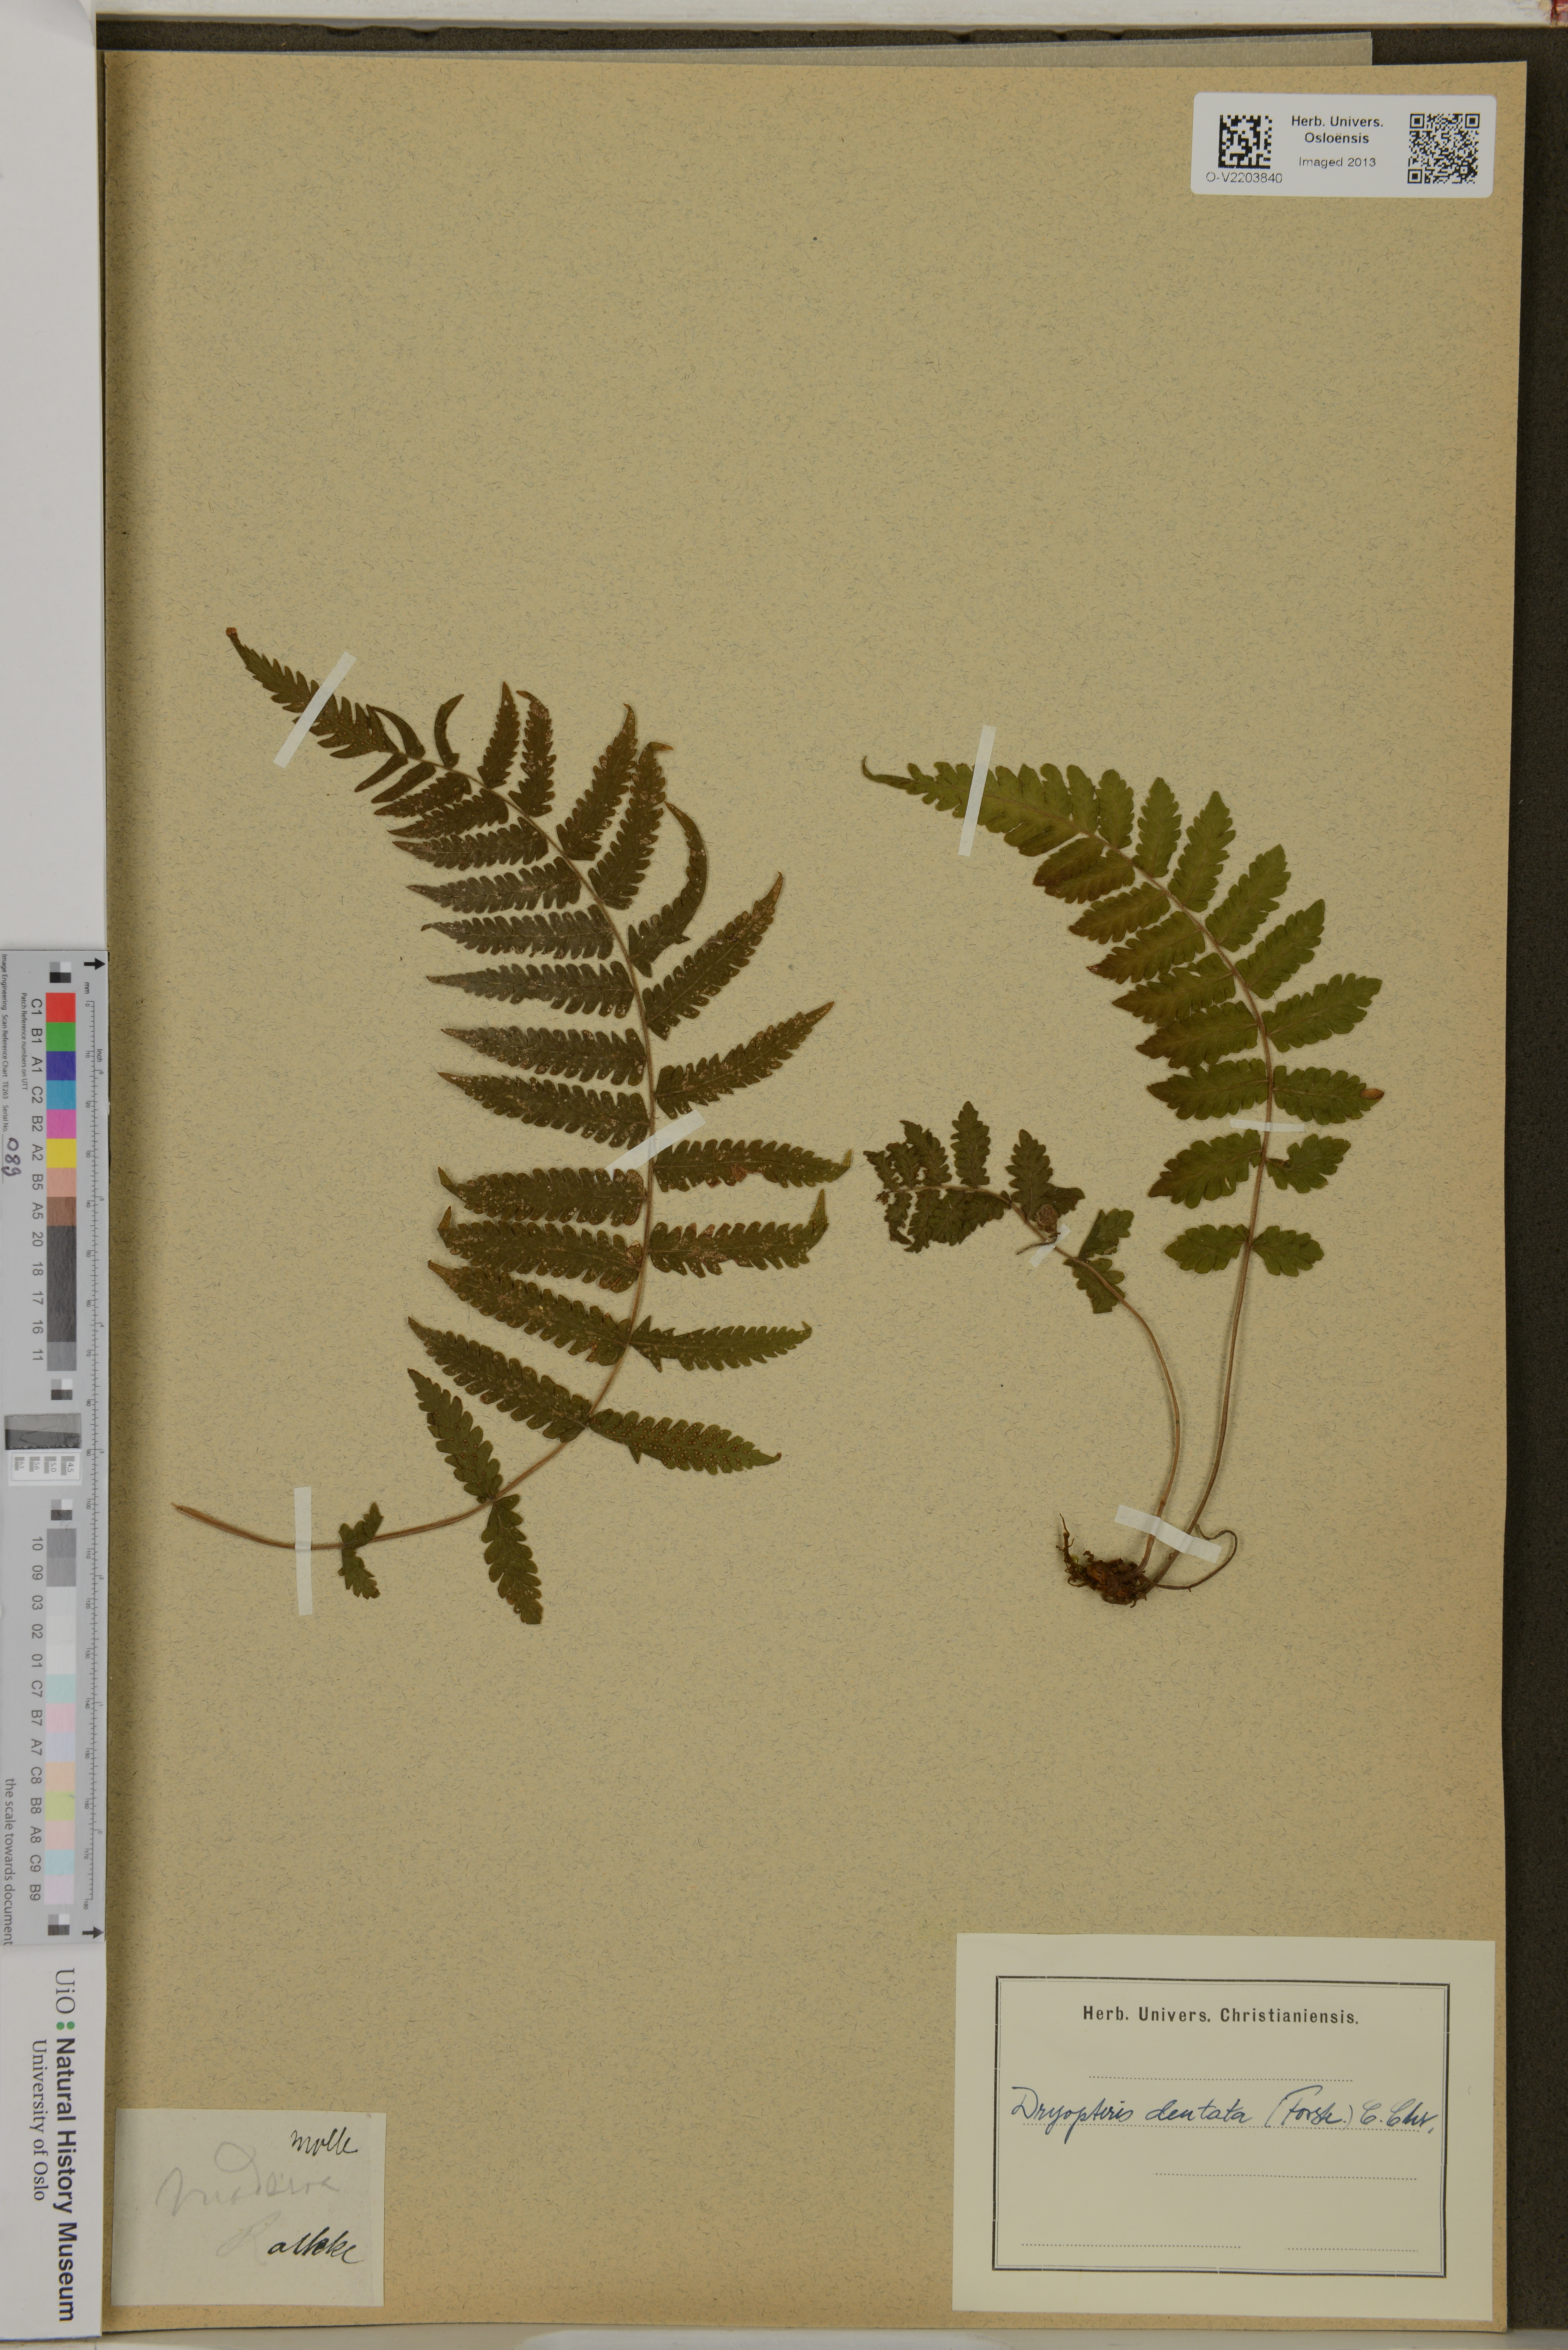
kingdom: Plantae
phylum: Tracheophyta
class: Polypodiopsida
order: Polypodiales
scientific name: Polypodiales
